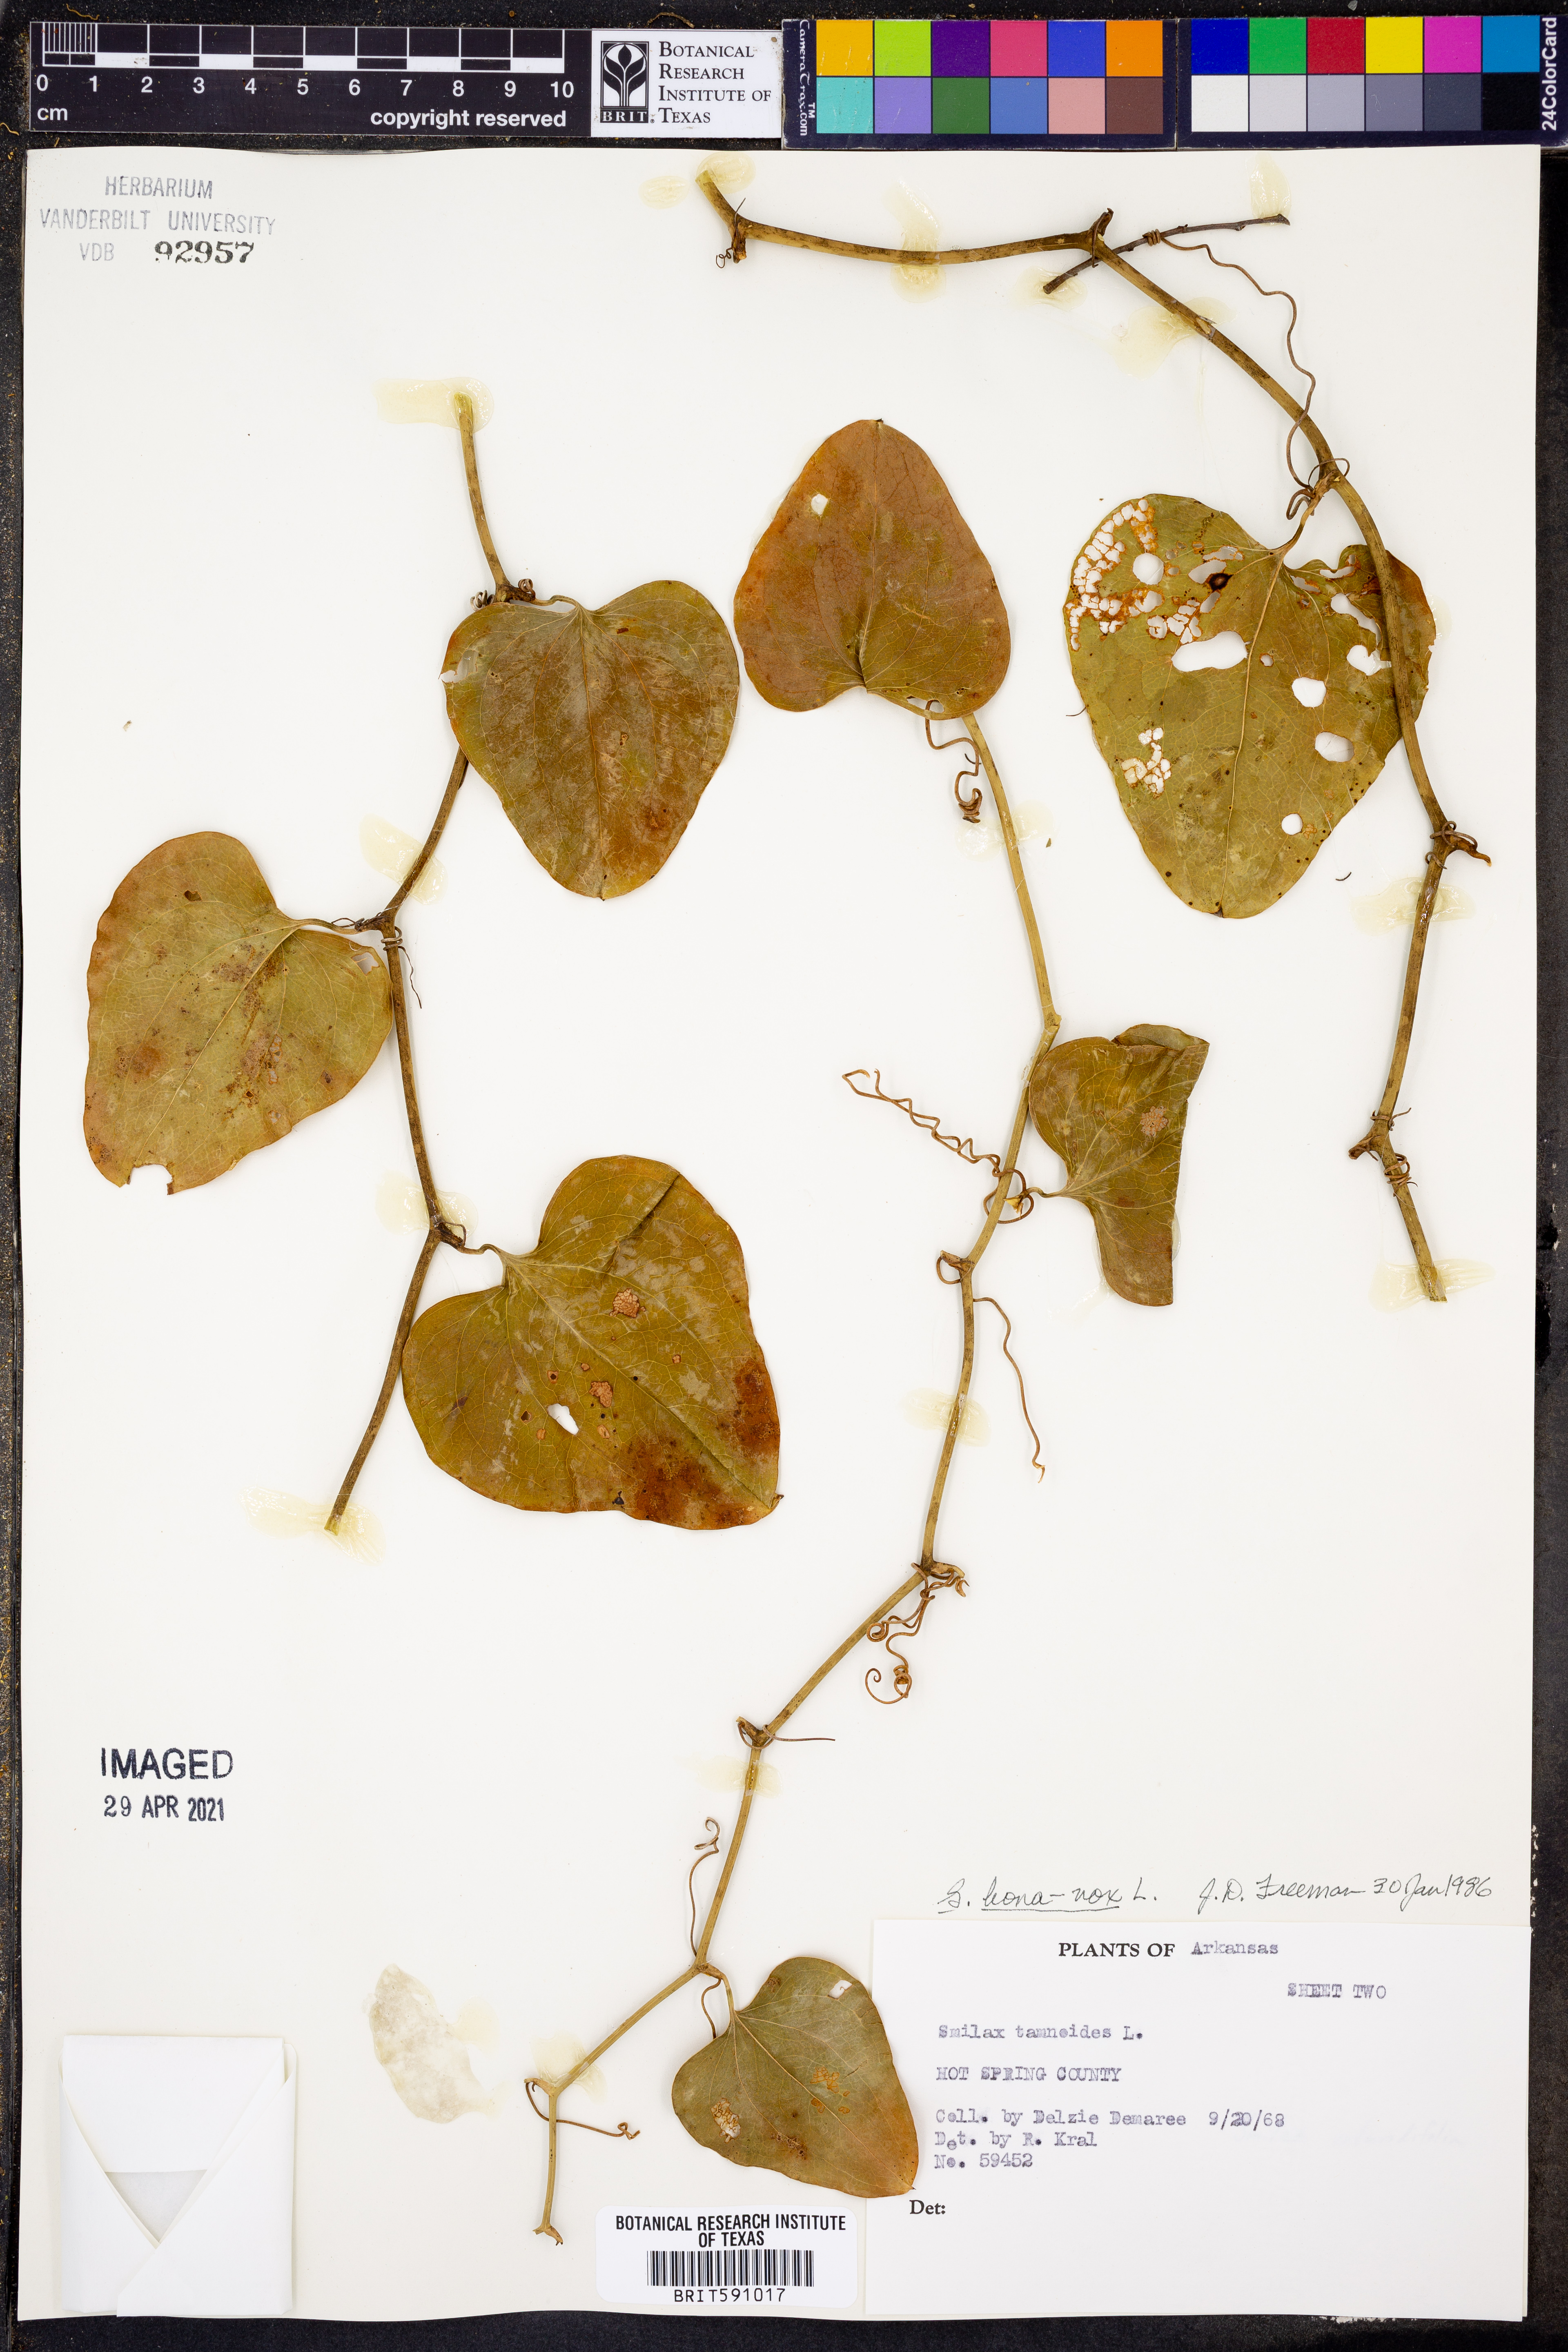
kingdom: Plantae
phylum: Tracheophyta
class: Liliopsida
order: Liliales
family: Smilacaceae
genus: Smilax
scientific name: Smilax tamnoides
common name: Hellfetter
